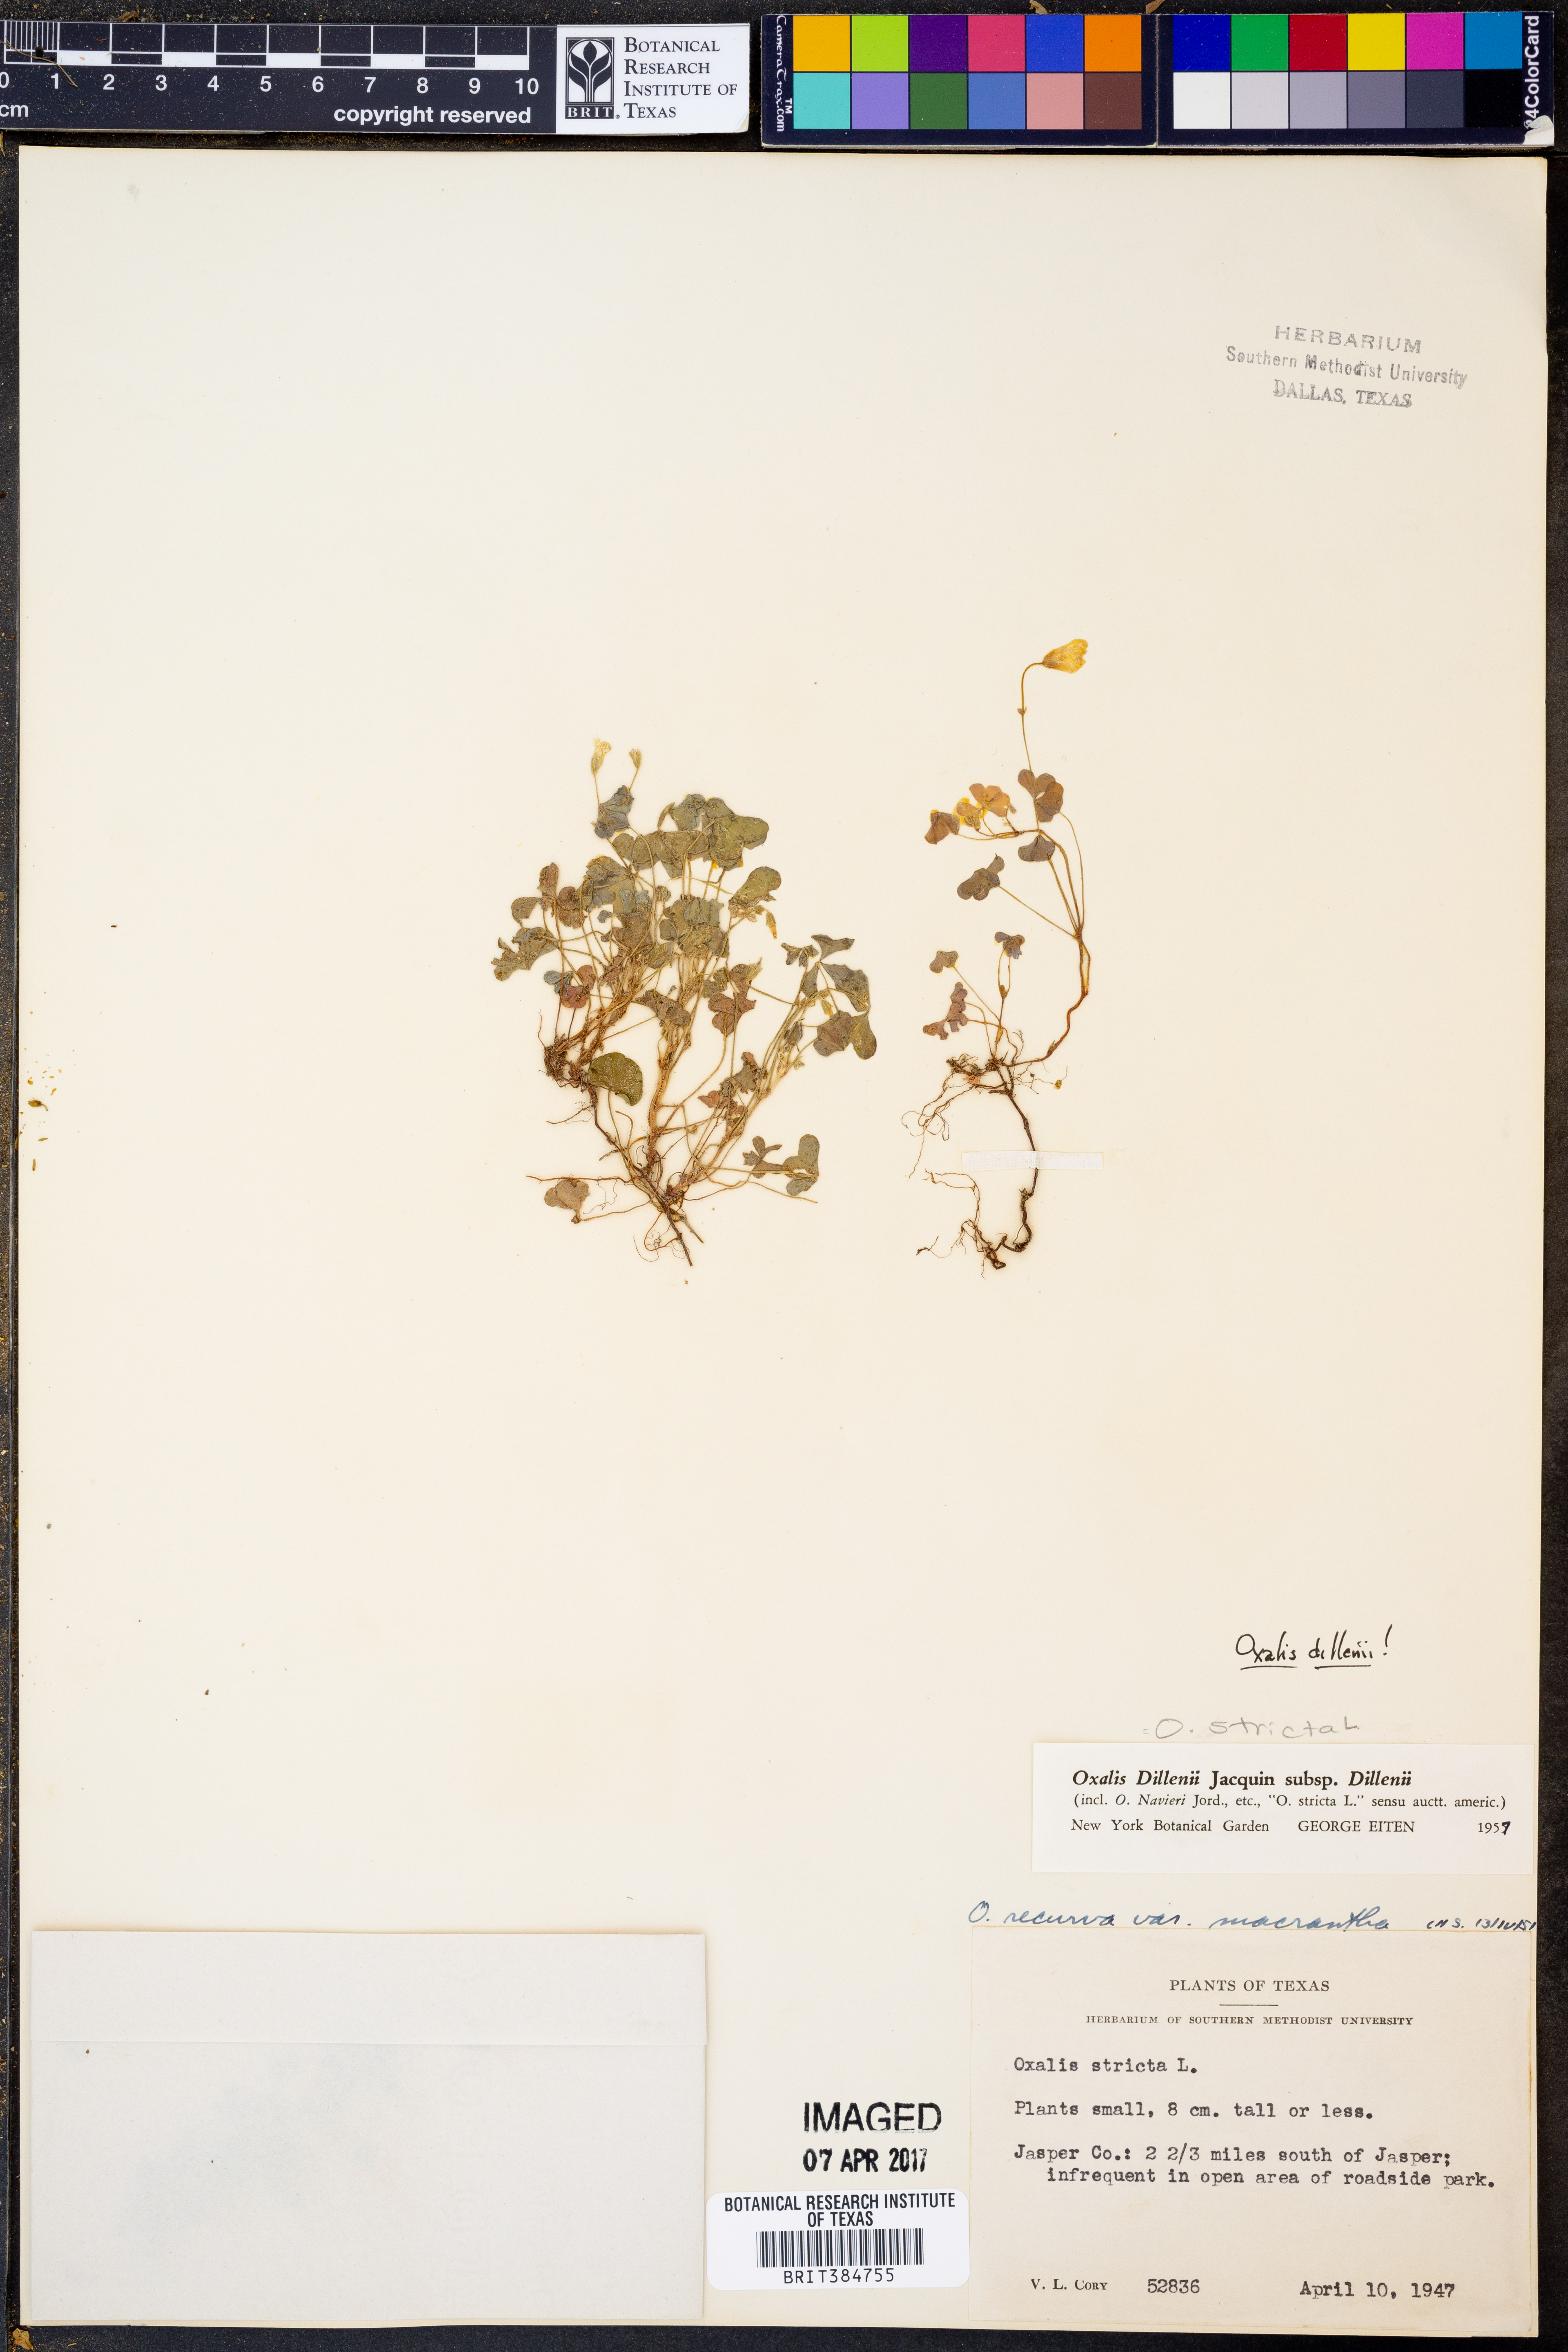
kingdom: Plantae
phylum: Tracheophyta
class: Magnoliopsida
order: Oxalidales
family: Oxalidaceae
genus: Oxalis
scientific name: Oxalis dillenii
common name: Sussex yellow-sorrel
